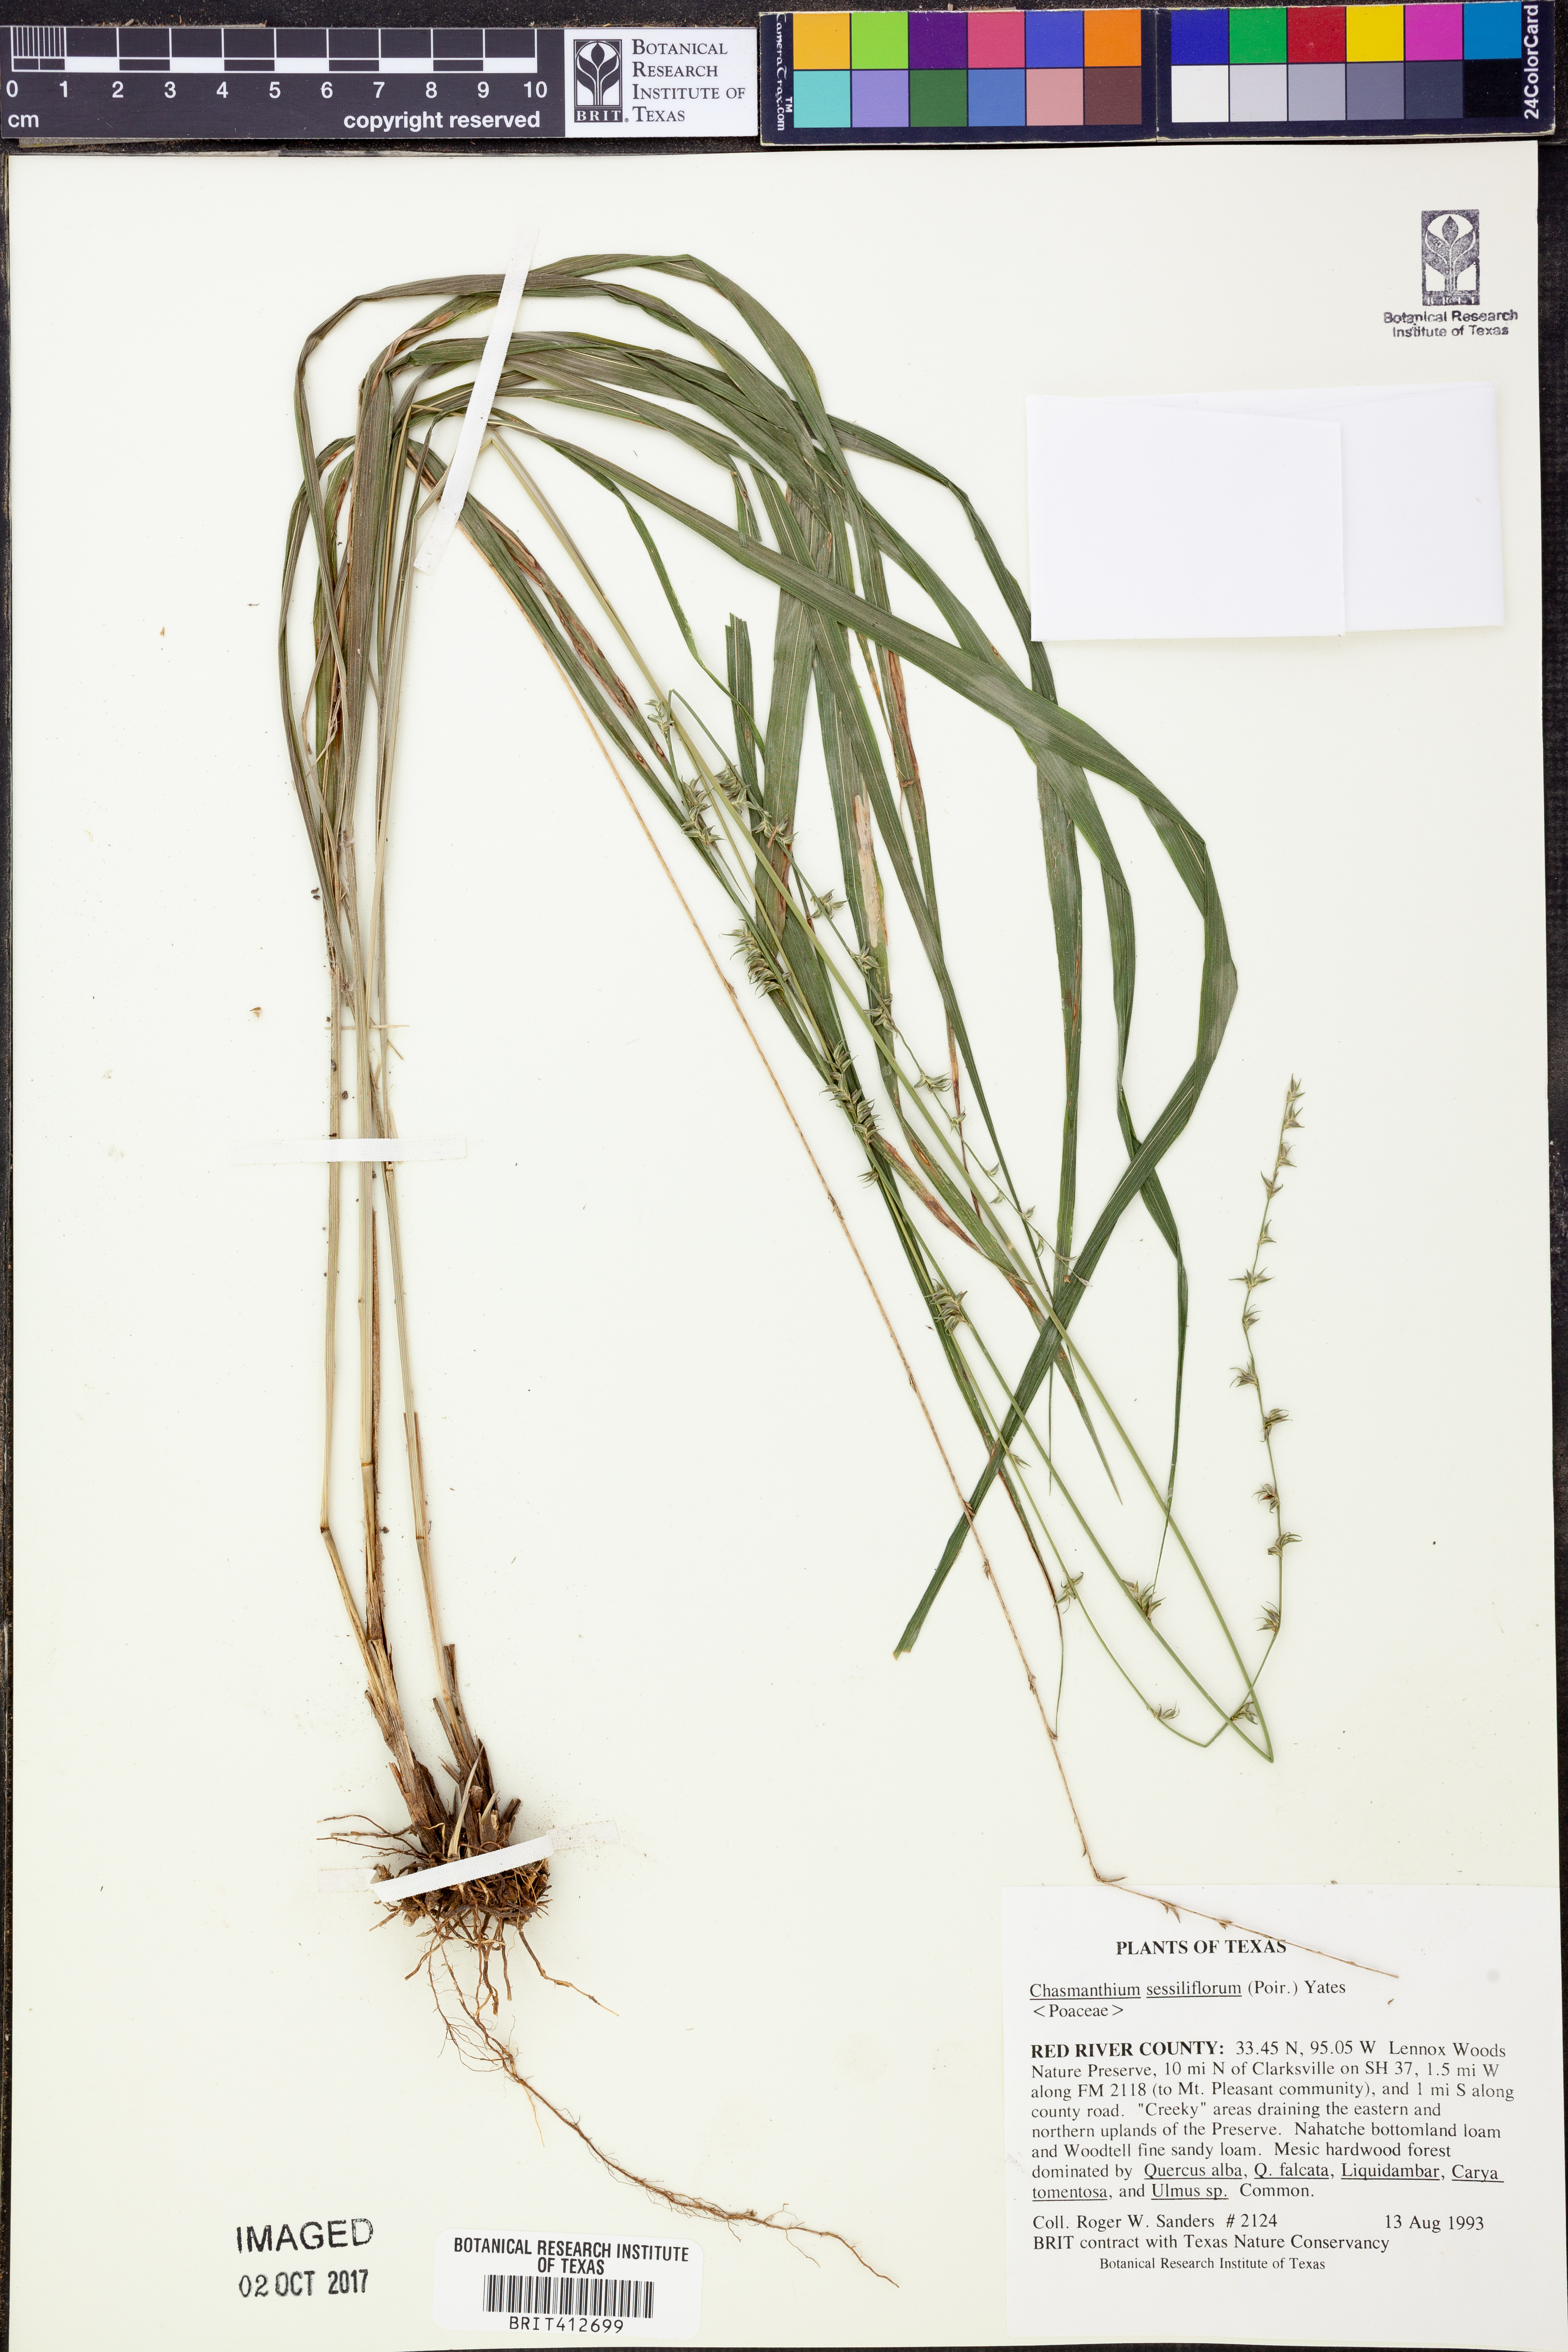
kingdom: Plantae
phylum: Tracheophyta
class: Liliopsida
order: Poales
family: Poaceae
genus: Chasmanthium
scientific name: Chasmanthium laxum
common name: Slender chasmanthium
